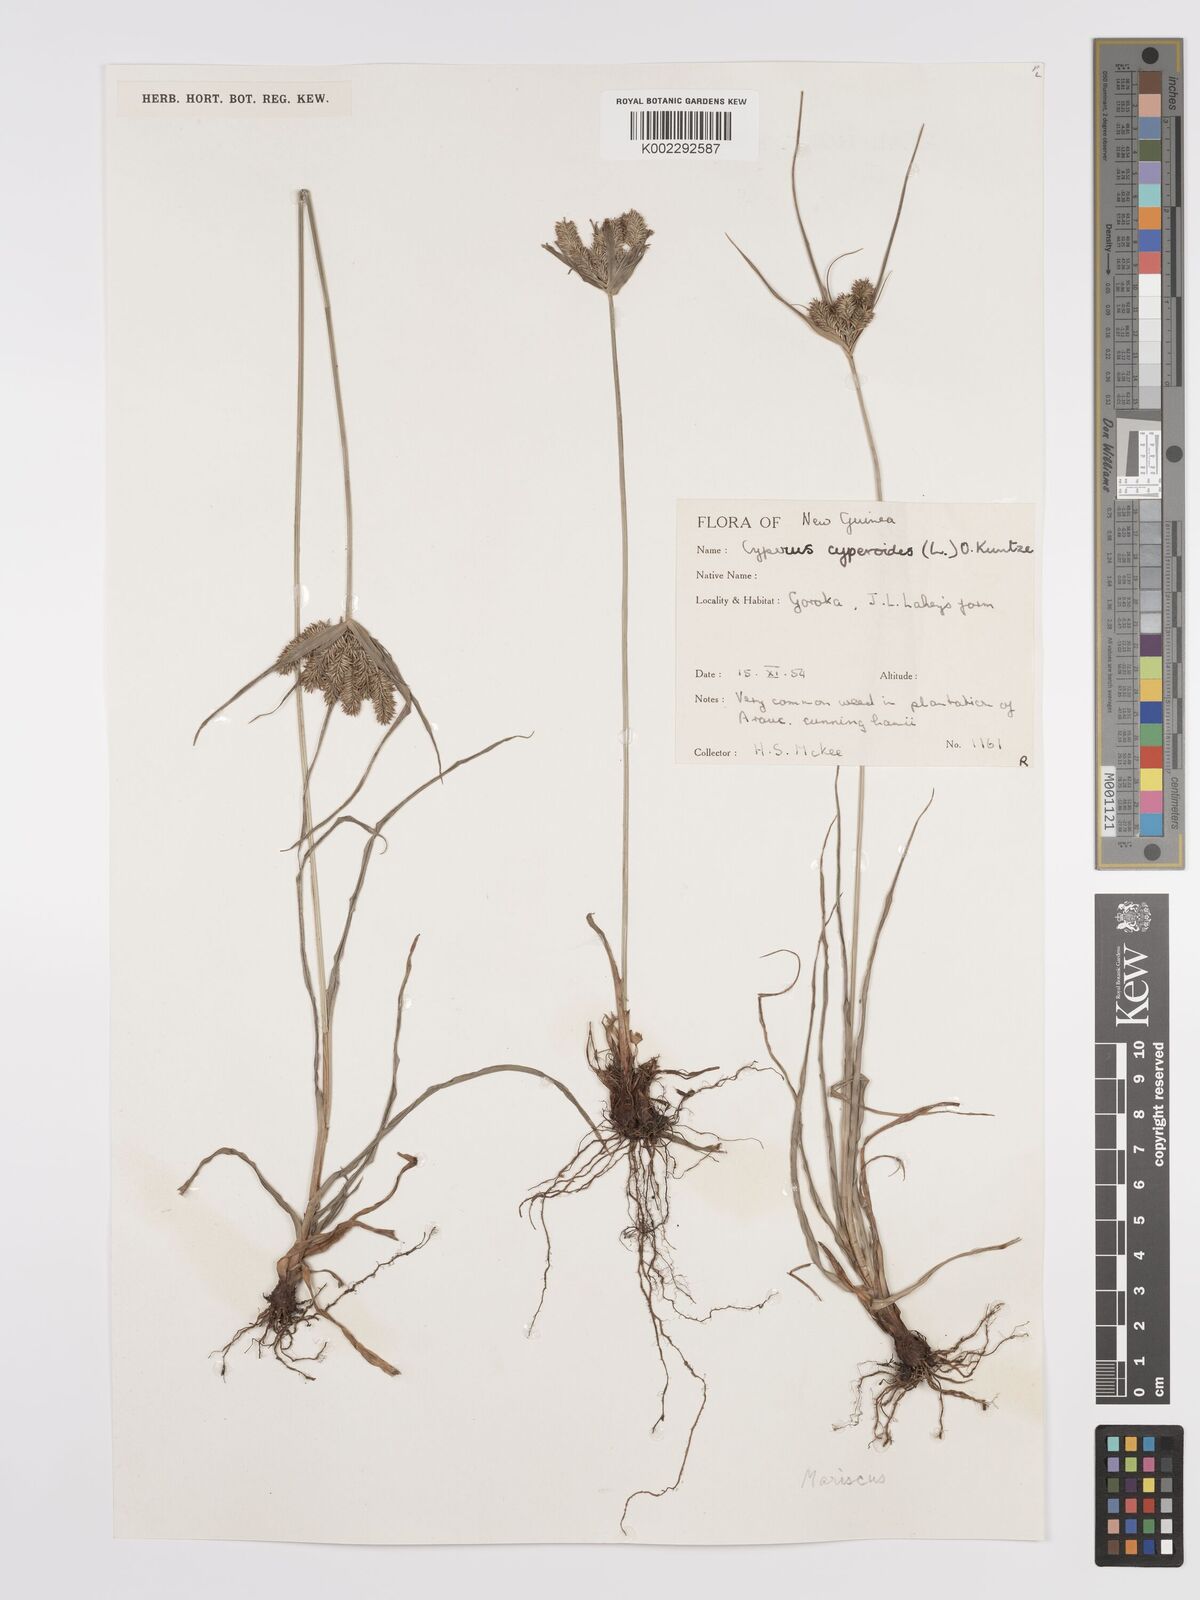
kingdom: Plantae
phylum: Tracheophyta
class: Liliopsida
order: Poales
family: Cyperaceae
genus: Cyperus
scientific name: Cyperus cyperoides
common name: Pacific island flat sedge
